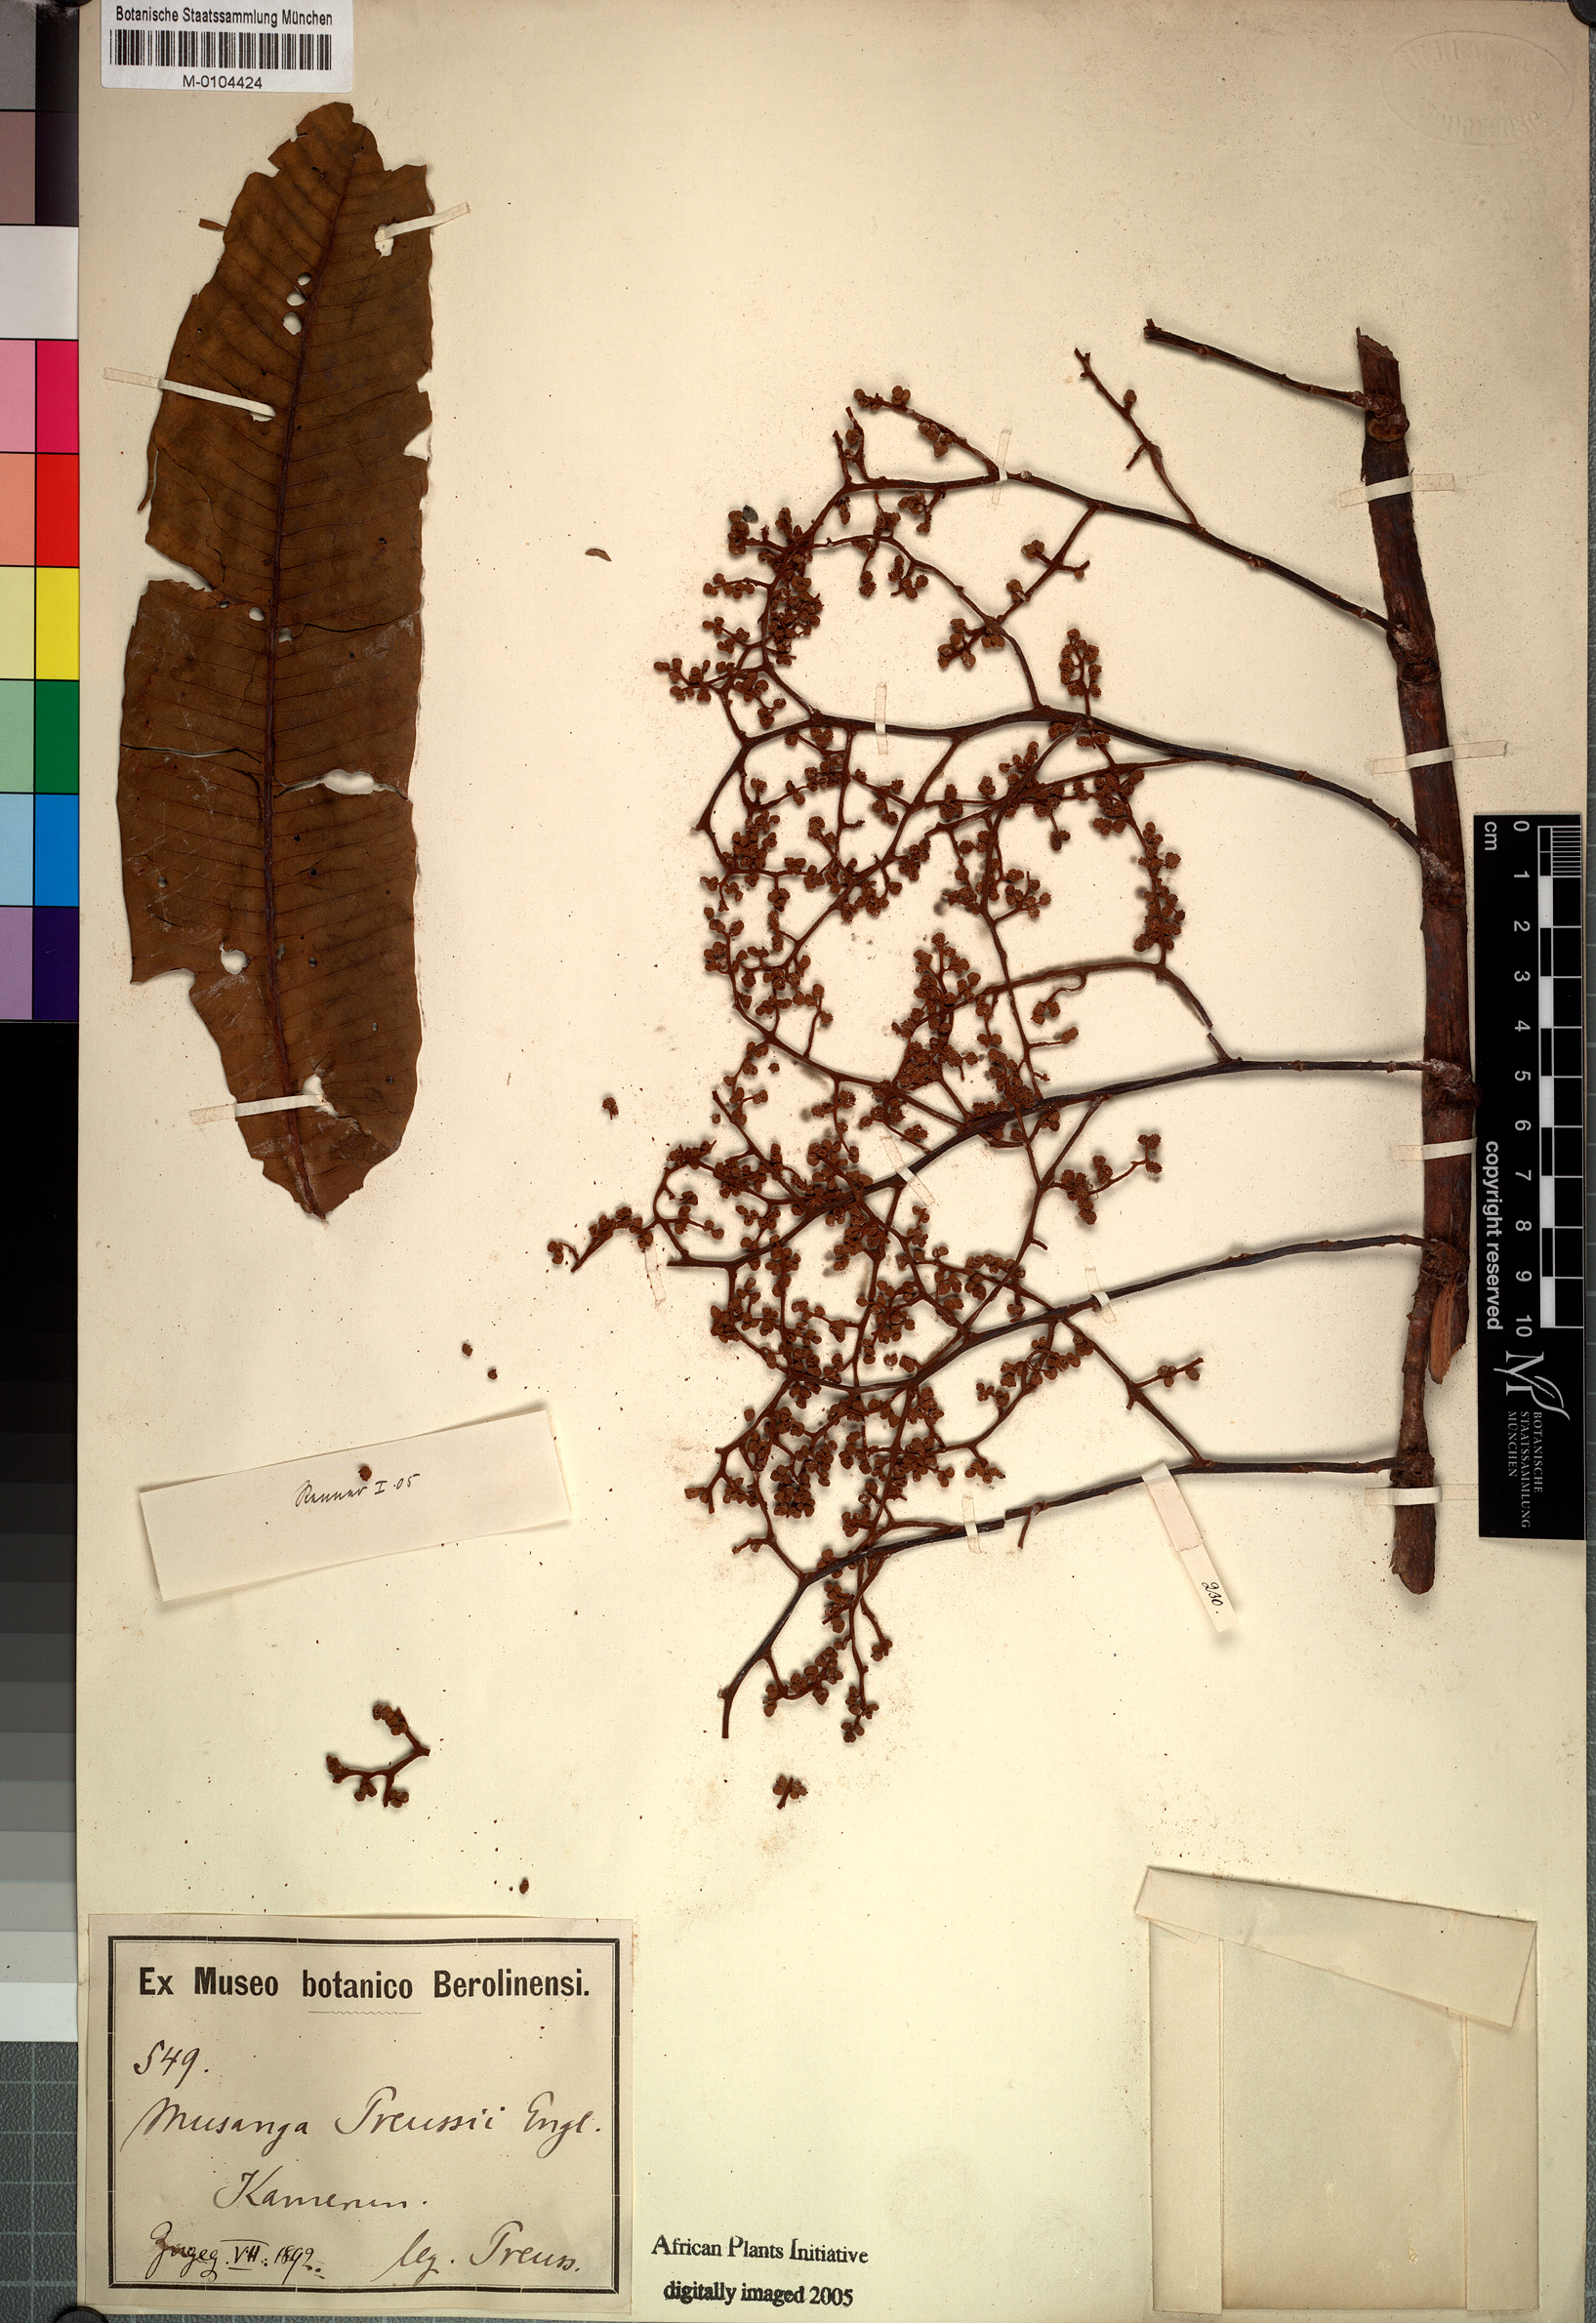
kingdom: Plantae
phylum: Tracheophyta
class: Magnoliopsida
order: Magnoliales
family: Myristicaceae
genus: Pycnanthus
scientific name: Pycnanthus microcephalus
